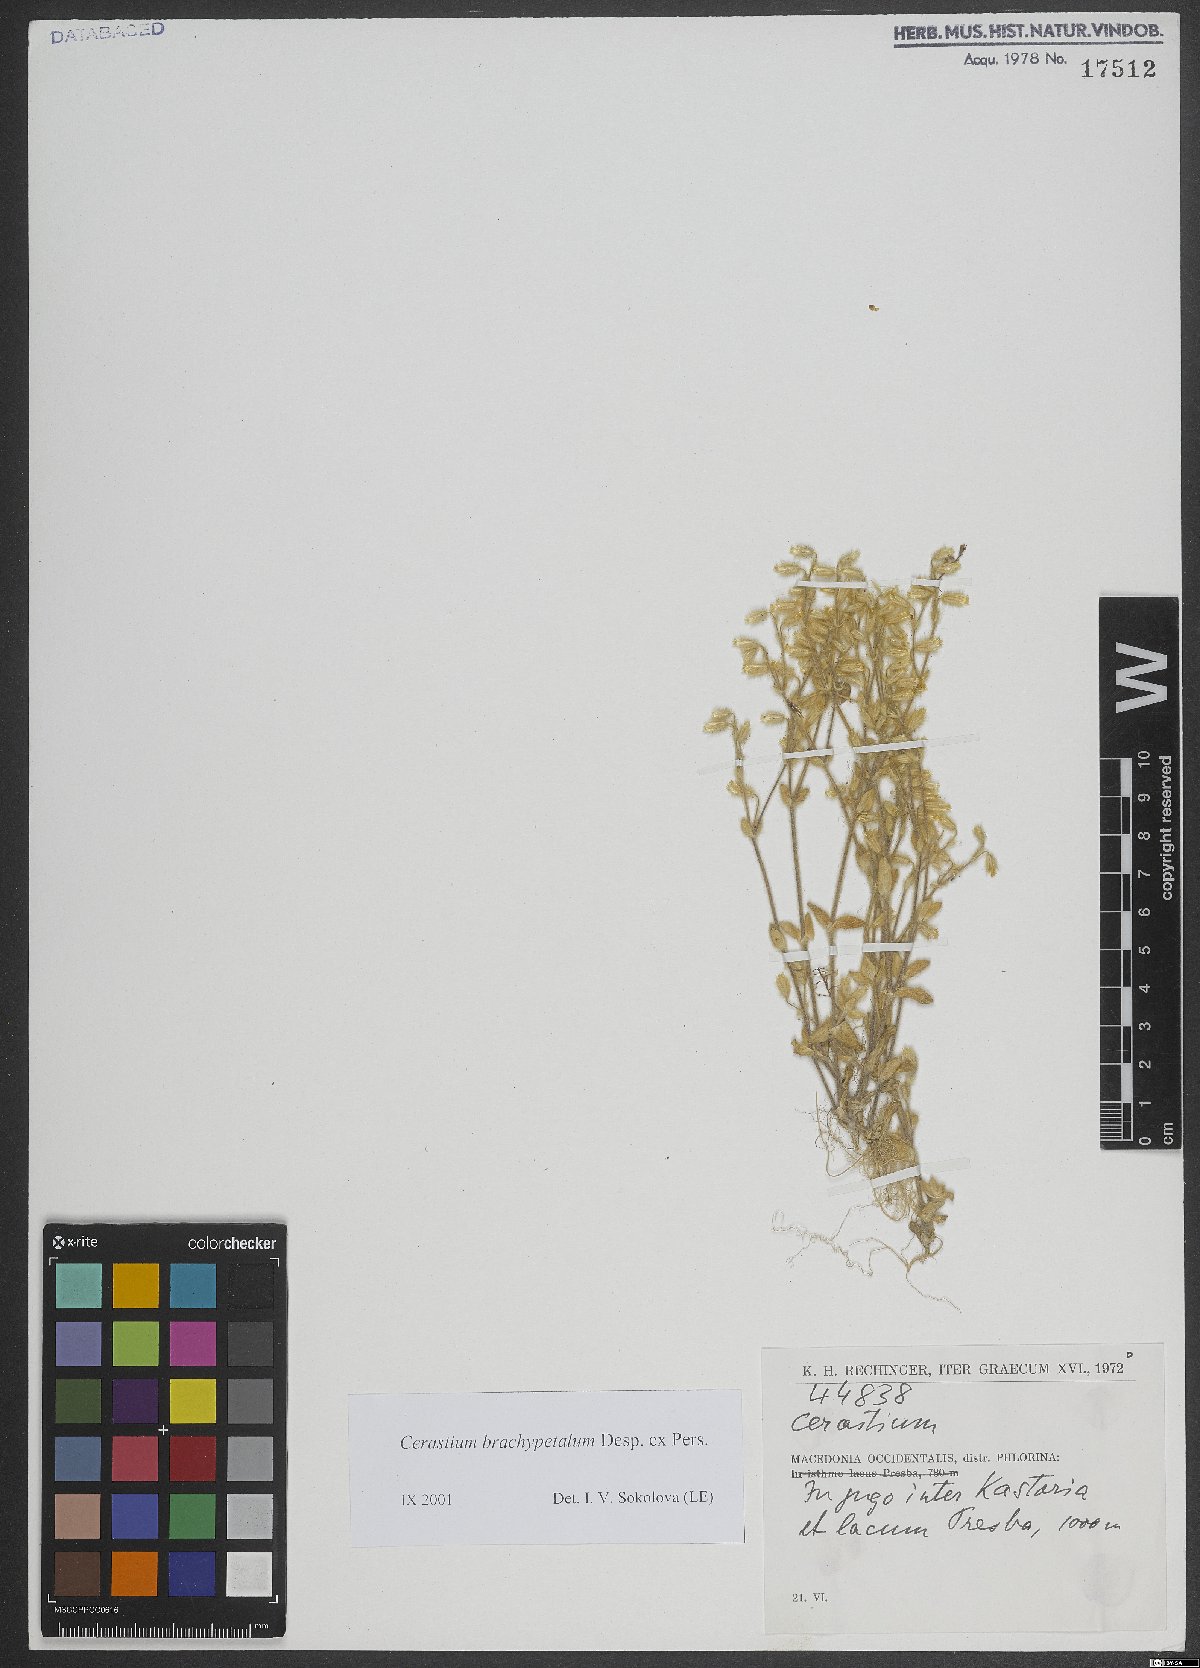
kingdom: Plantae
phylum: Tracheophyta
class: Magnoliopsida
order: Caryophyllales
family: Caryophyllaceae
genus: Cerastium
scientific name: Cerastium brachypetalum
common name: Grey mouse-ear
